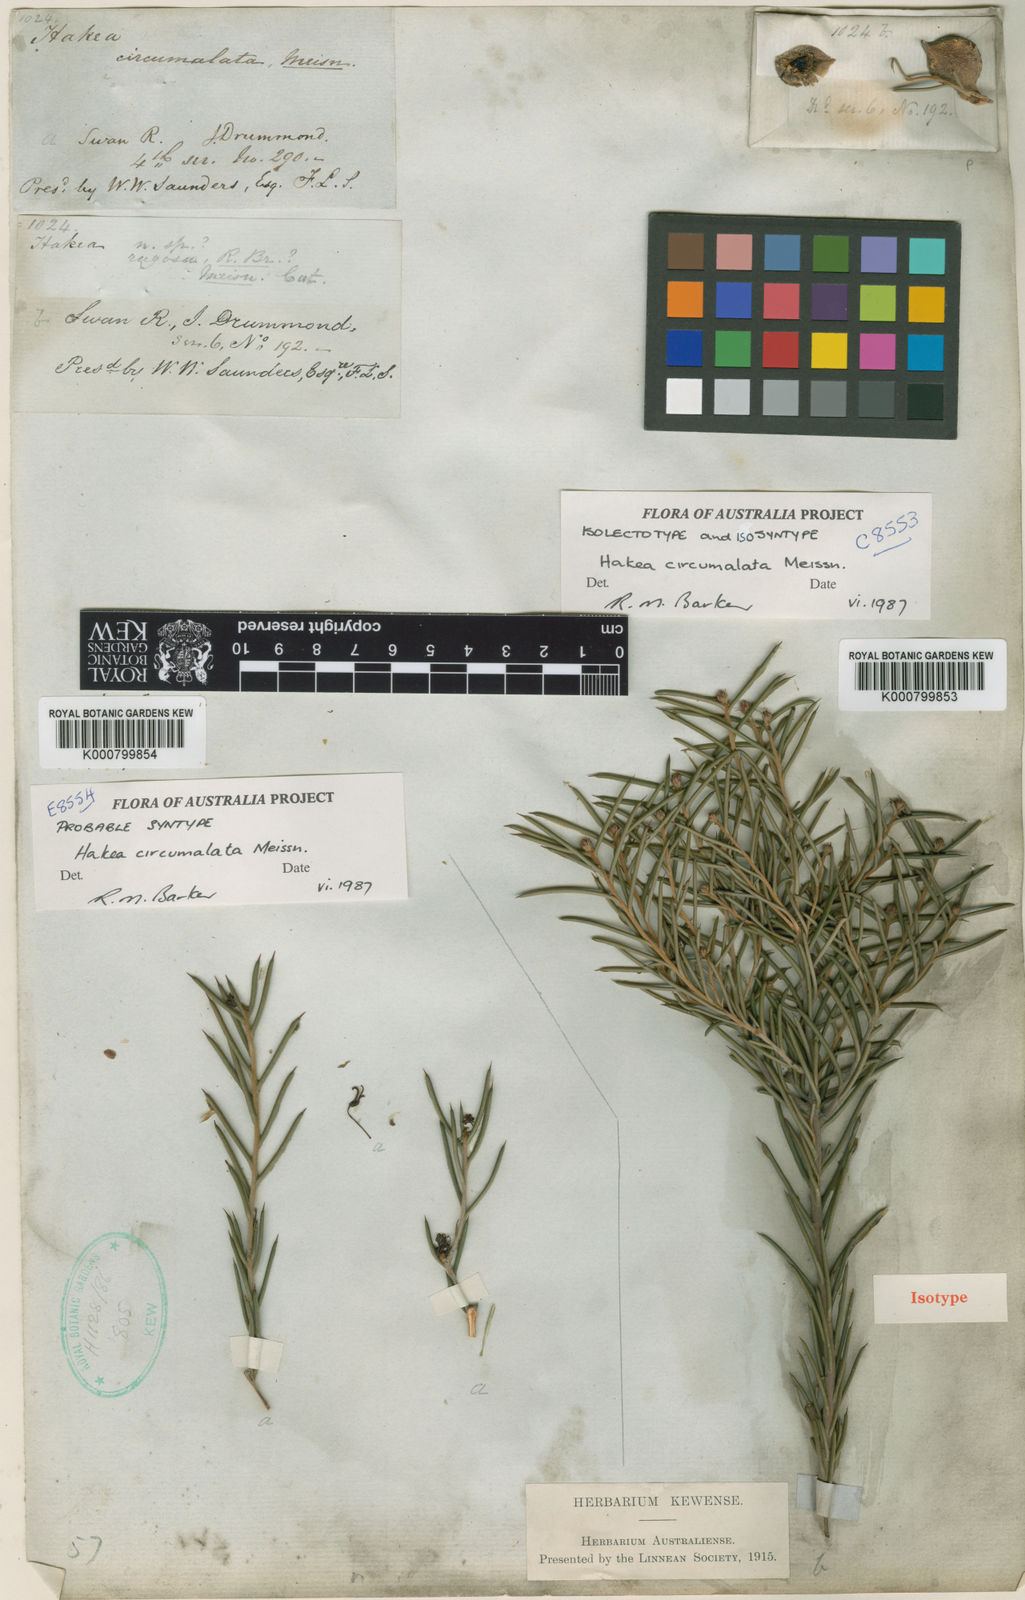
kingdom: Plantae
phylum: Tracheophyta
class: Magnoliopsida
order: Proteales
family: Proteaceae
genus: Hakea
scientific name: Hakea circumalata
